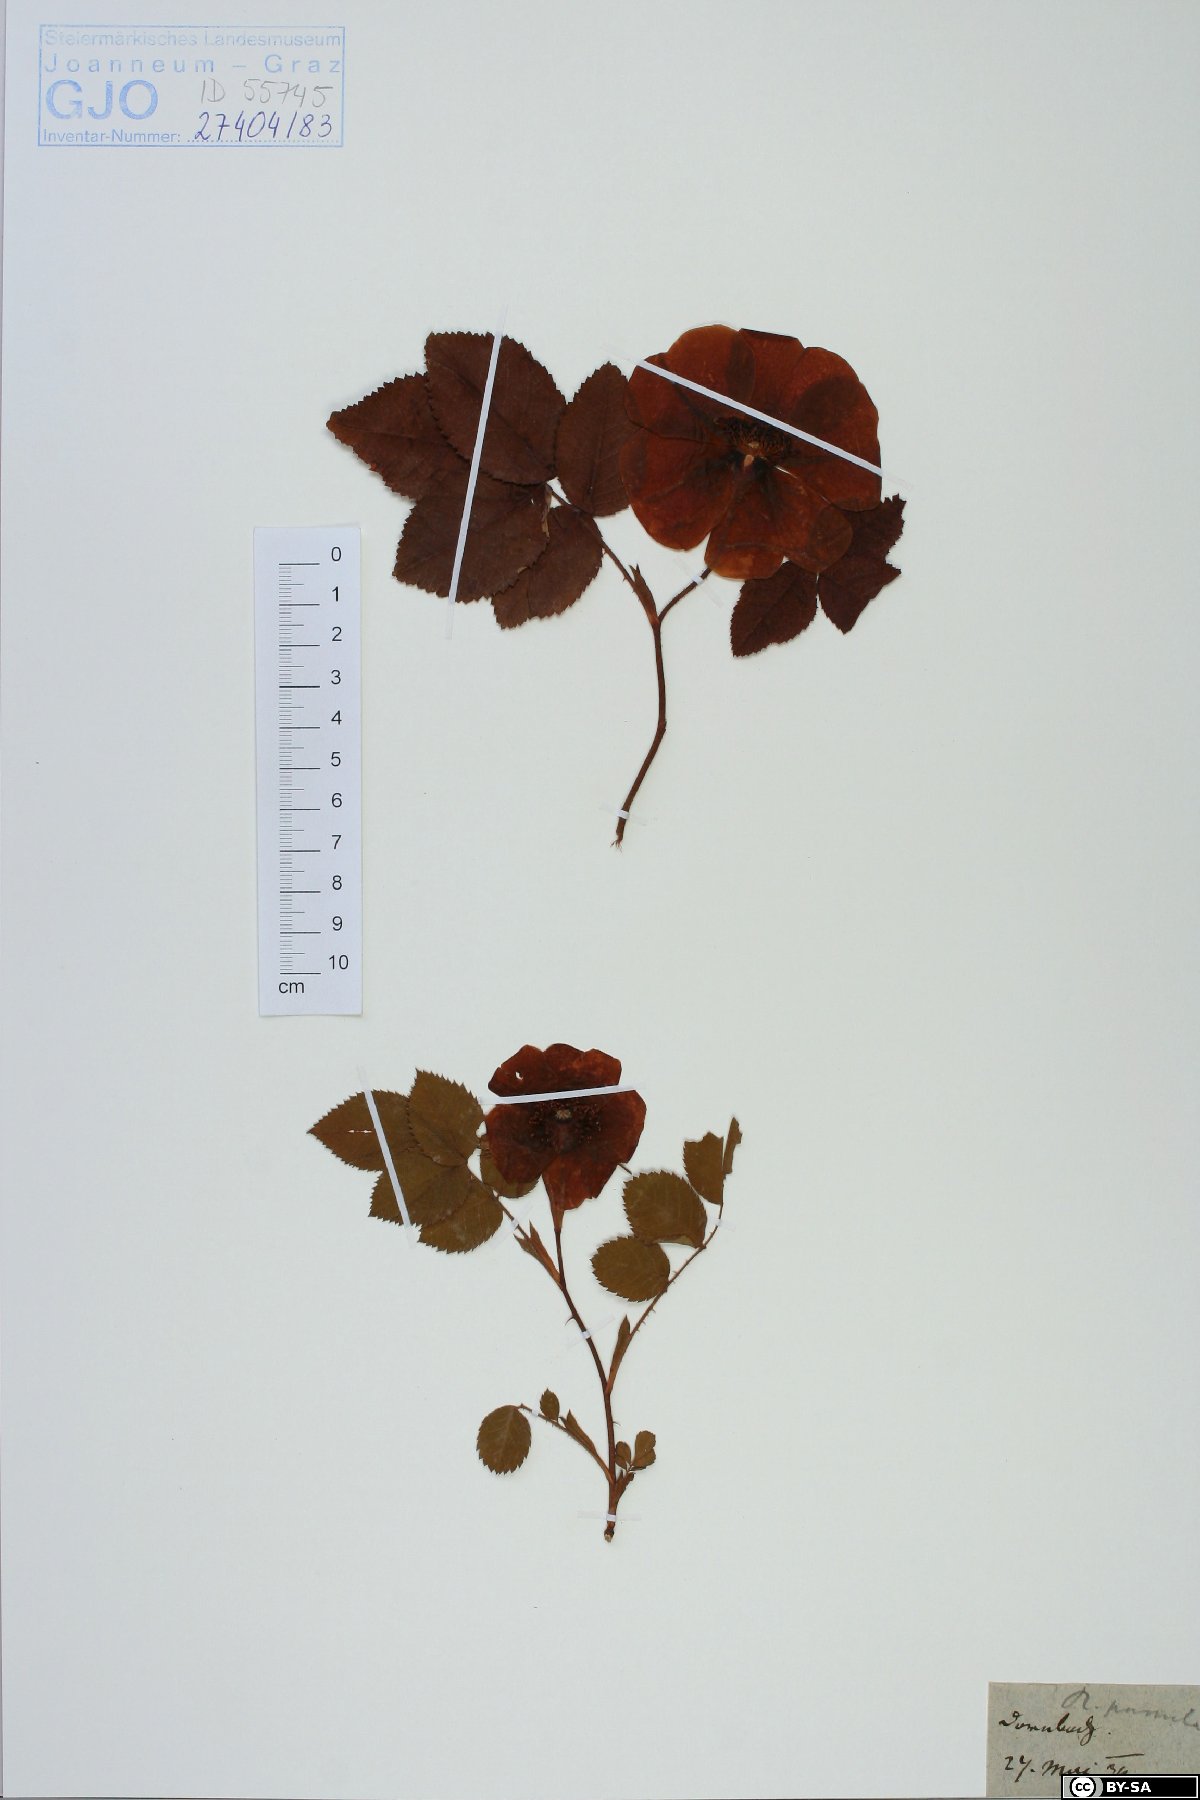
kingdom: Plantae
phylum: Tracheophyta
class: Magnoliopsida
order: Rosales
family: Rosaceae
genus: Rosa
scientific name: Rosa gallica
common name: French rose
